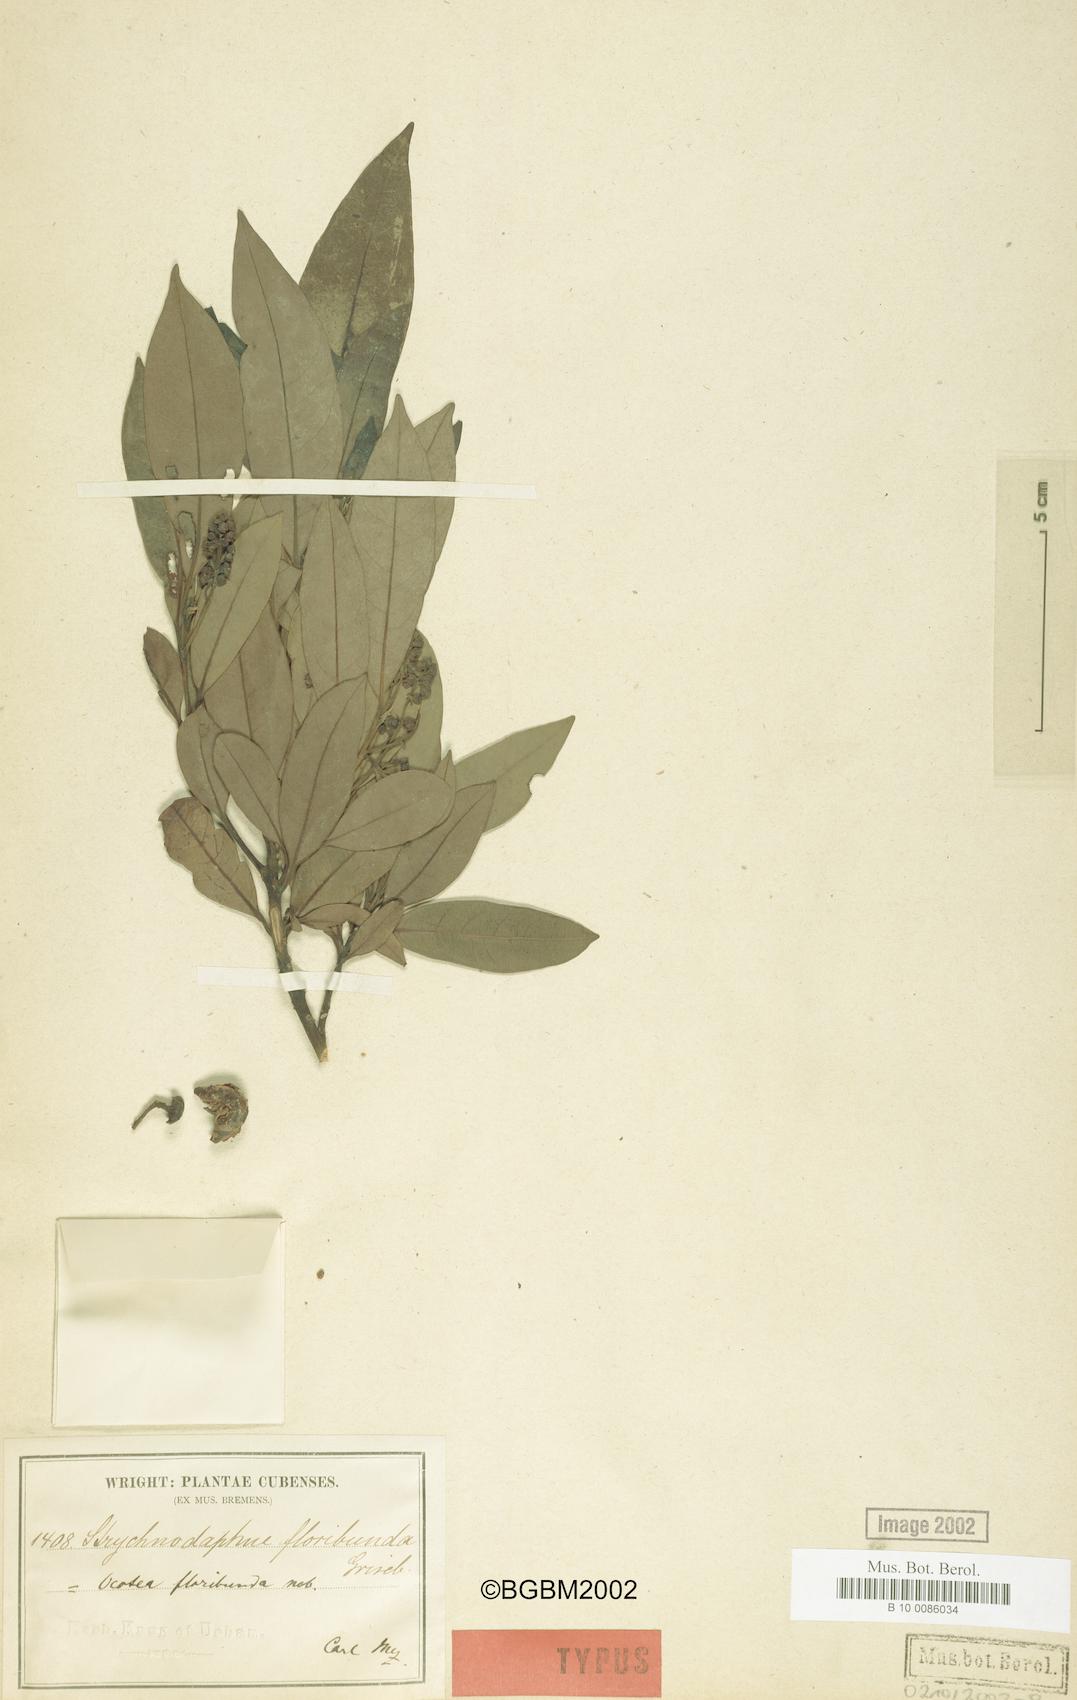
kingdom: Plantae
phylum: Tracheophyta
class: Magnoliopsida
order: Laurales
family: Lauraceae
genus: Ocotea
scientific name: Ocotea floribunda
